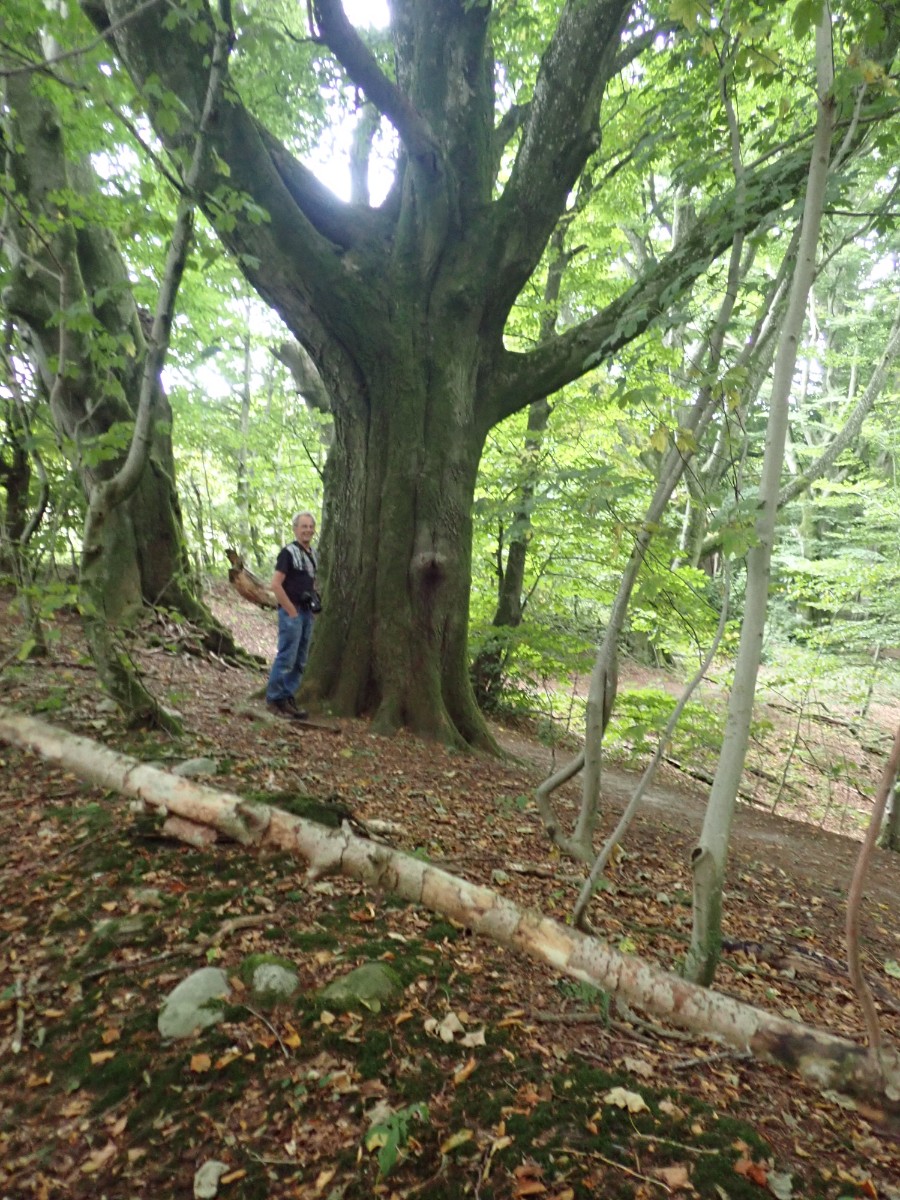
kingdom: Fungi
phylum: Basidiomycota
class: Agaricomycetes
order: Agaricales
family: Tricholomataceae
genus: Tricholoma
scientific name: Tricholoma columbetta
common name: silke-ridderhat
